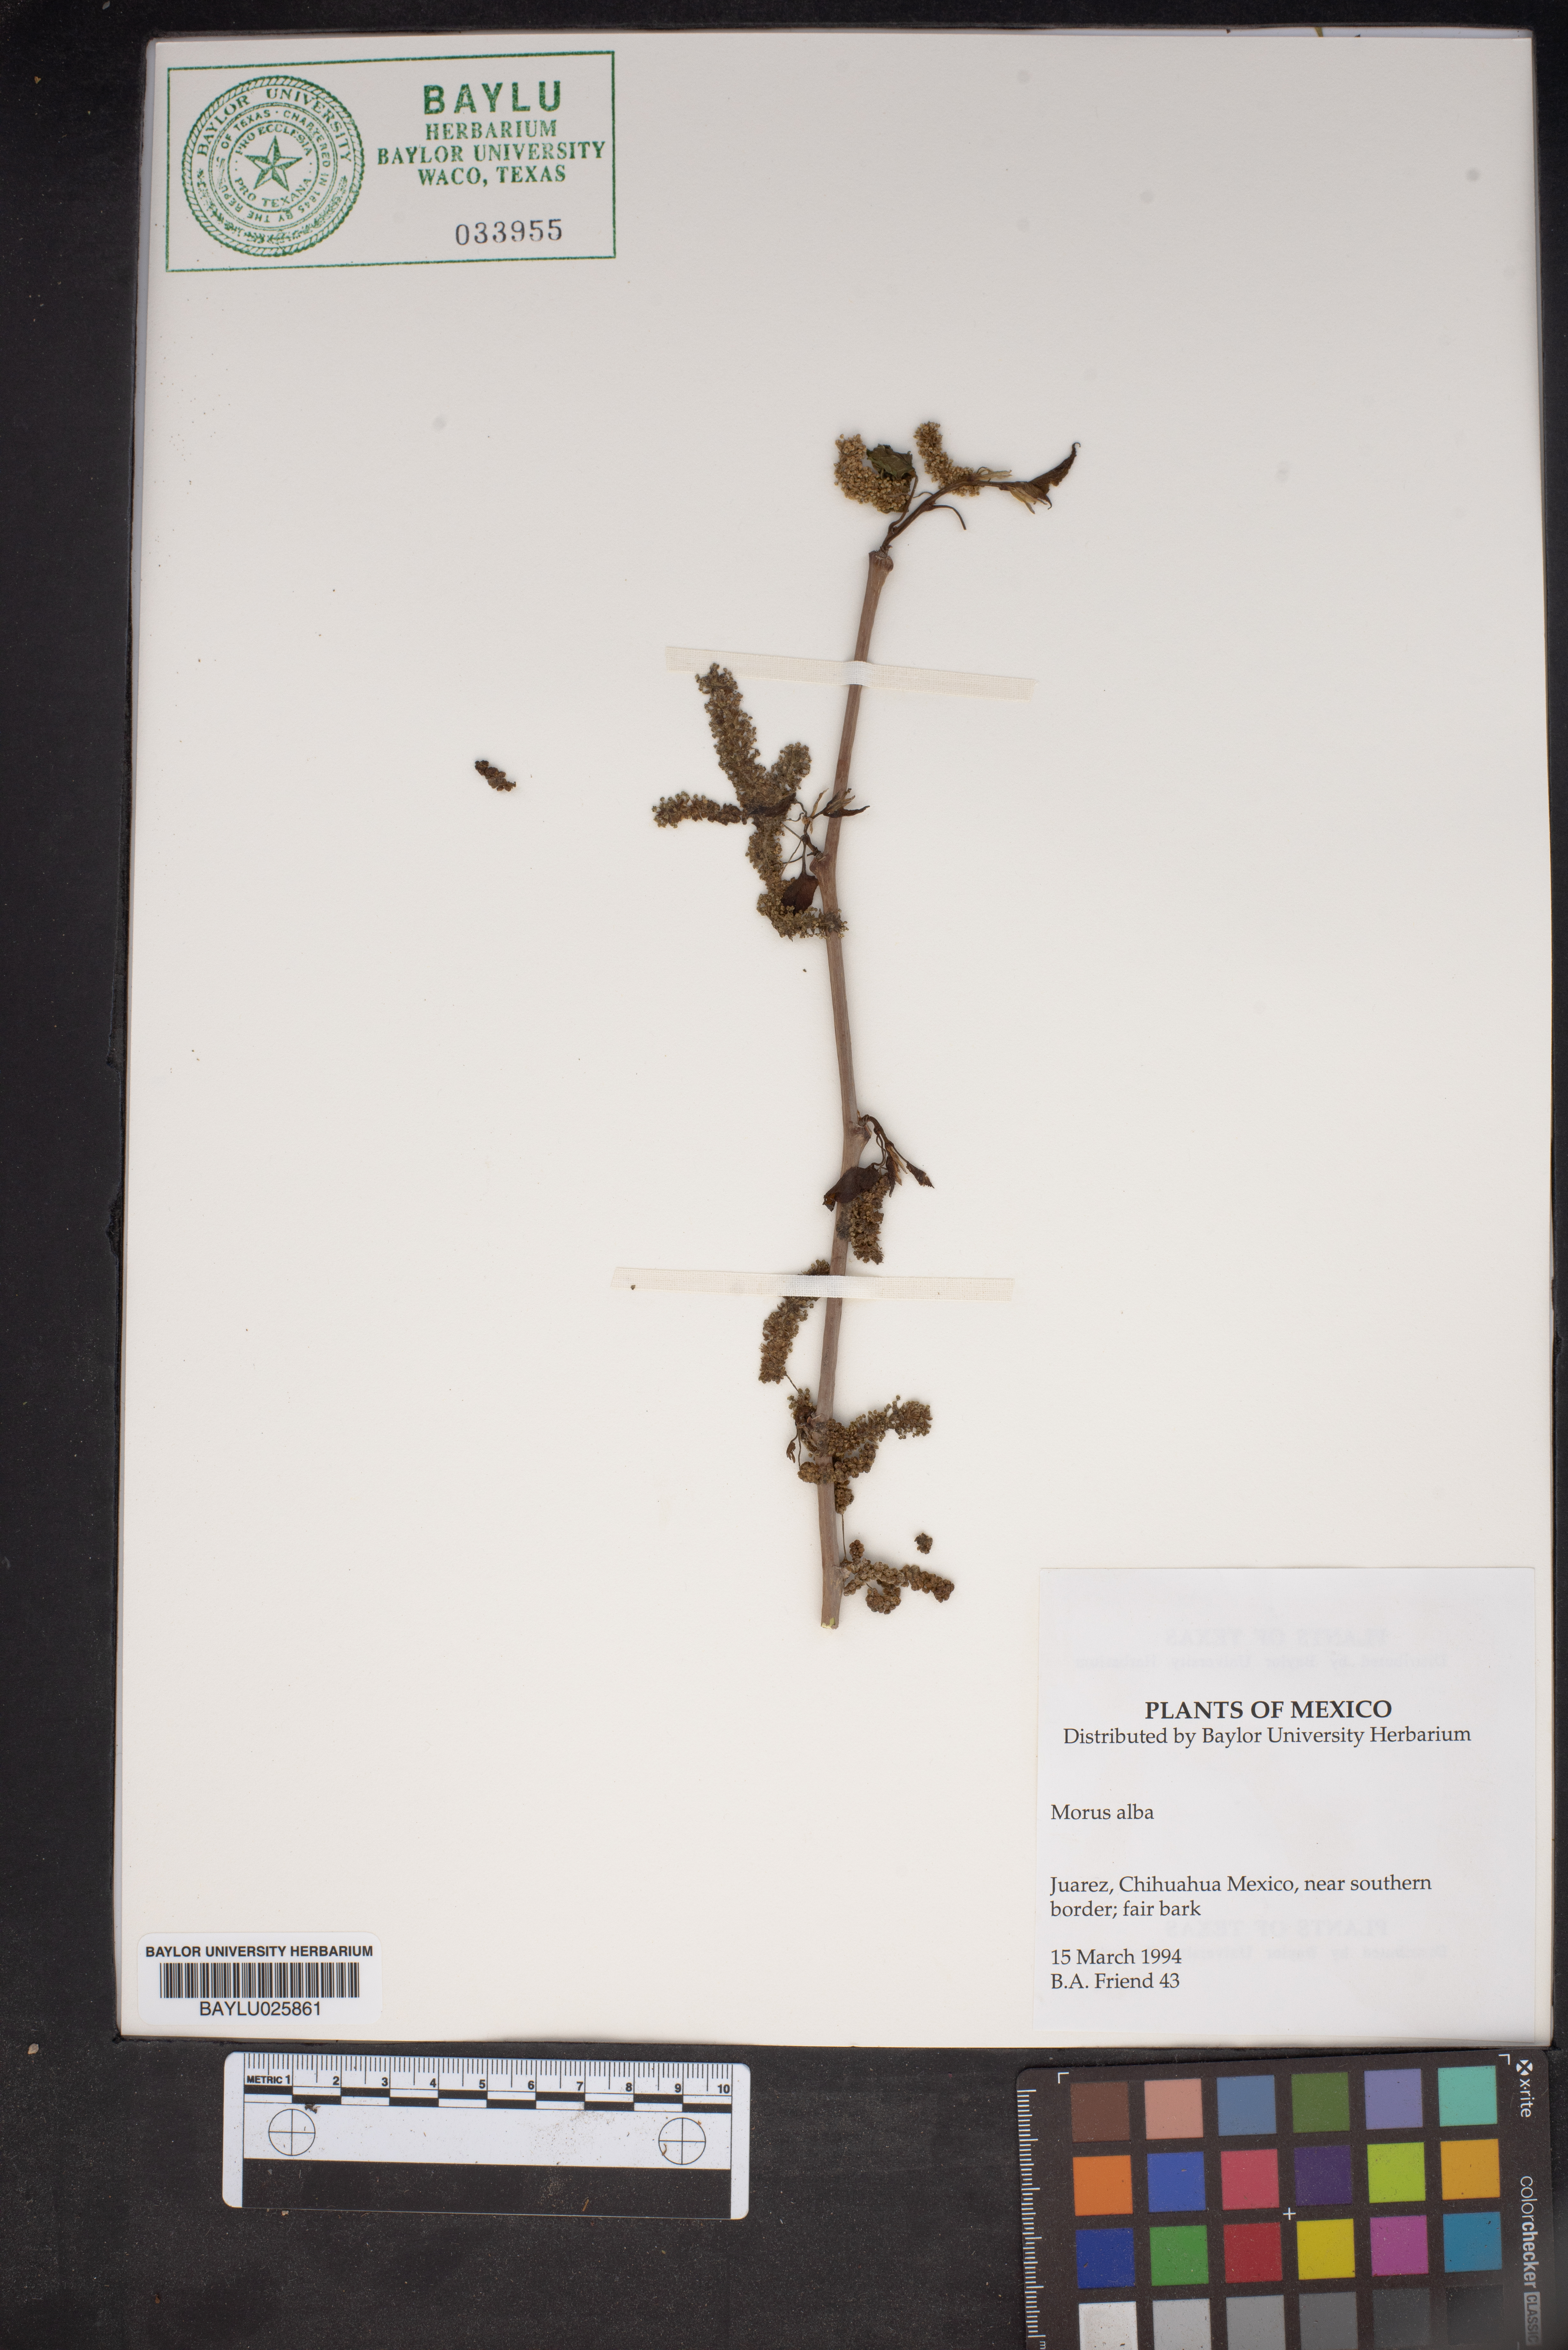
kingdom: Plantae
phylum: Tracheophyta
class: Magnoliopsida
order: Rosales
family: Moraceae
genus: Morus
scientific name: Morus alba
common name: White mulberry
